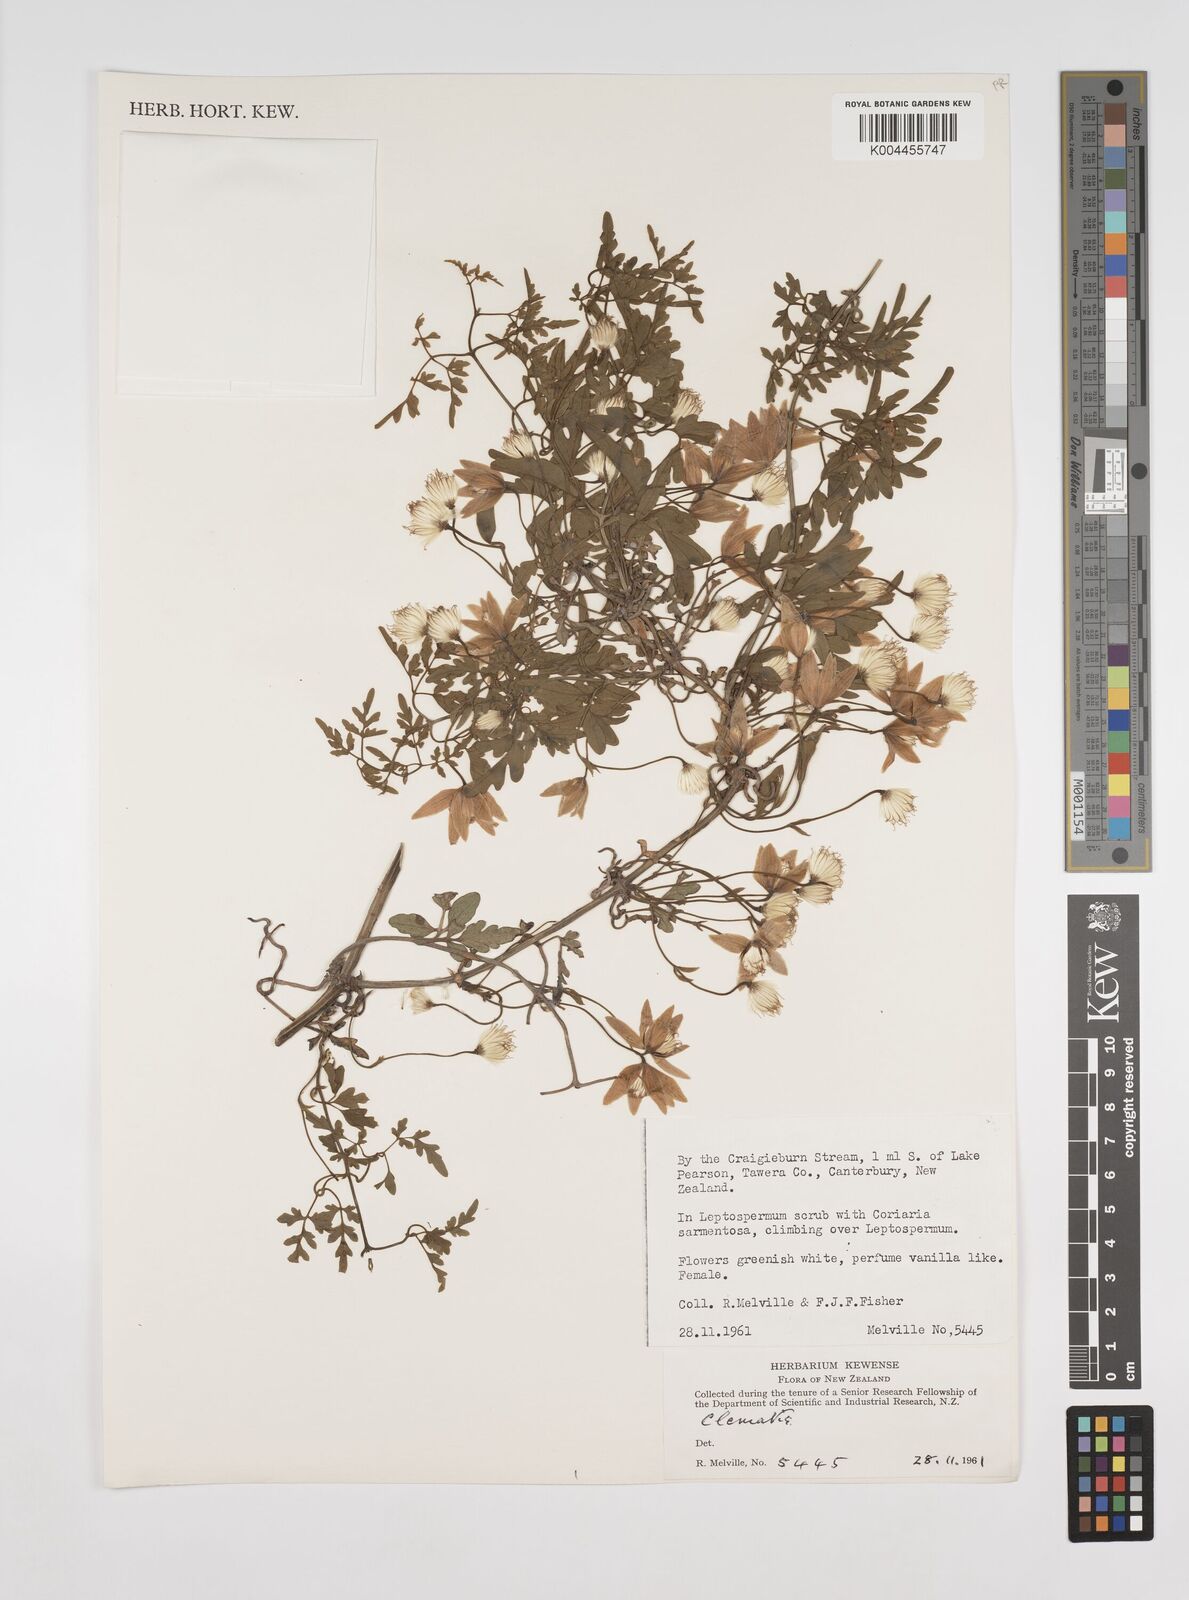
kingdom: Plantae
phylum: Tracheophyta
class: Magnoliopsida
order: Ranunculales
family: Ranunculaceae
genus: Clematis
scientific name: Clematis
